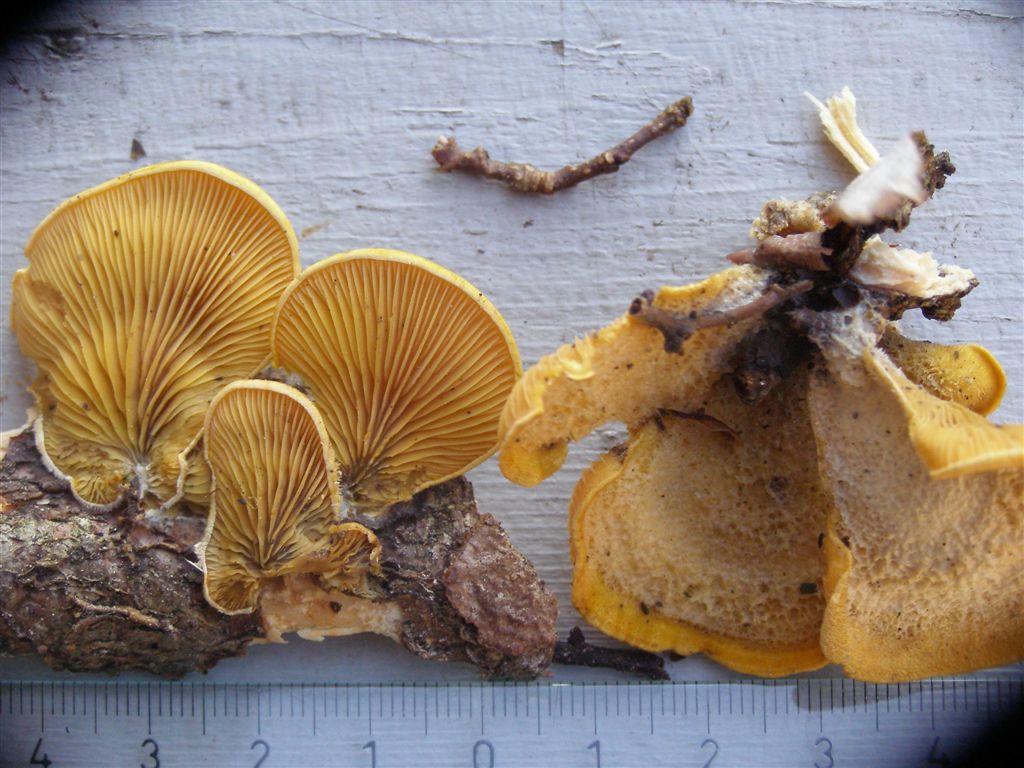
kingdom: Fungi
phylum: Basidiomycota
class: Agaricomycetes
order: Agaricales
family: Phyllotopsidaceae
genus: Phyllotopsis
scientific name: Phyllotopsis nidulans
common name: okkerblad
